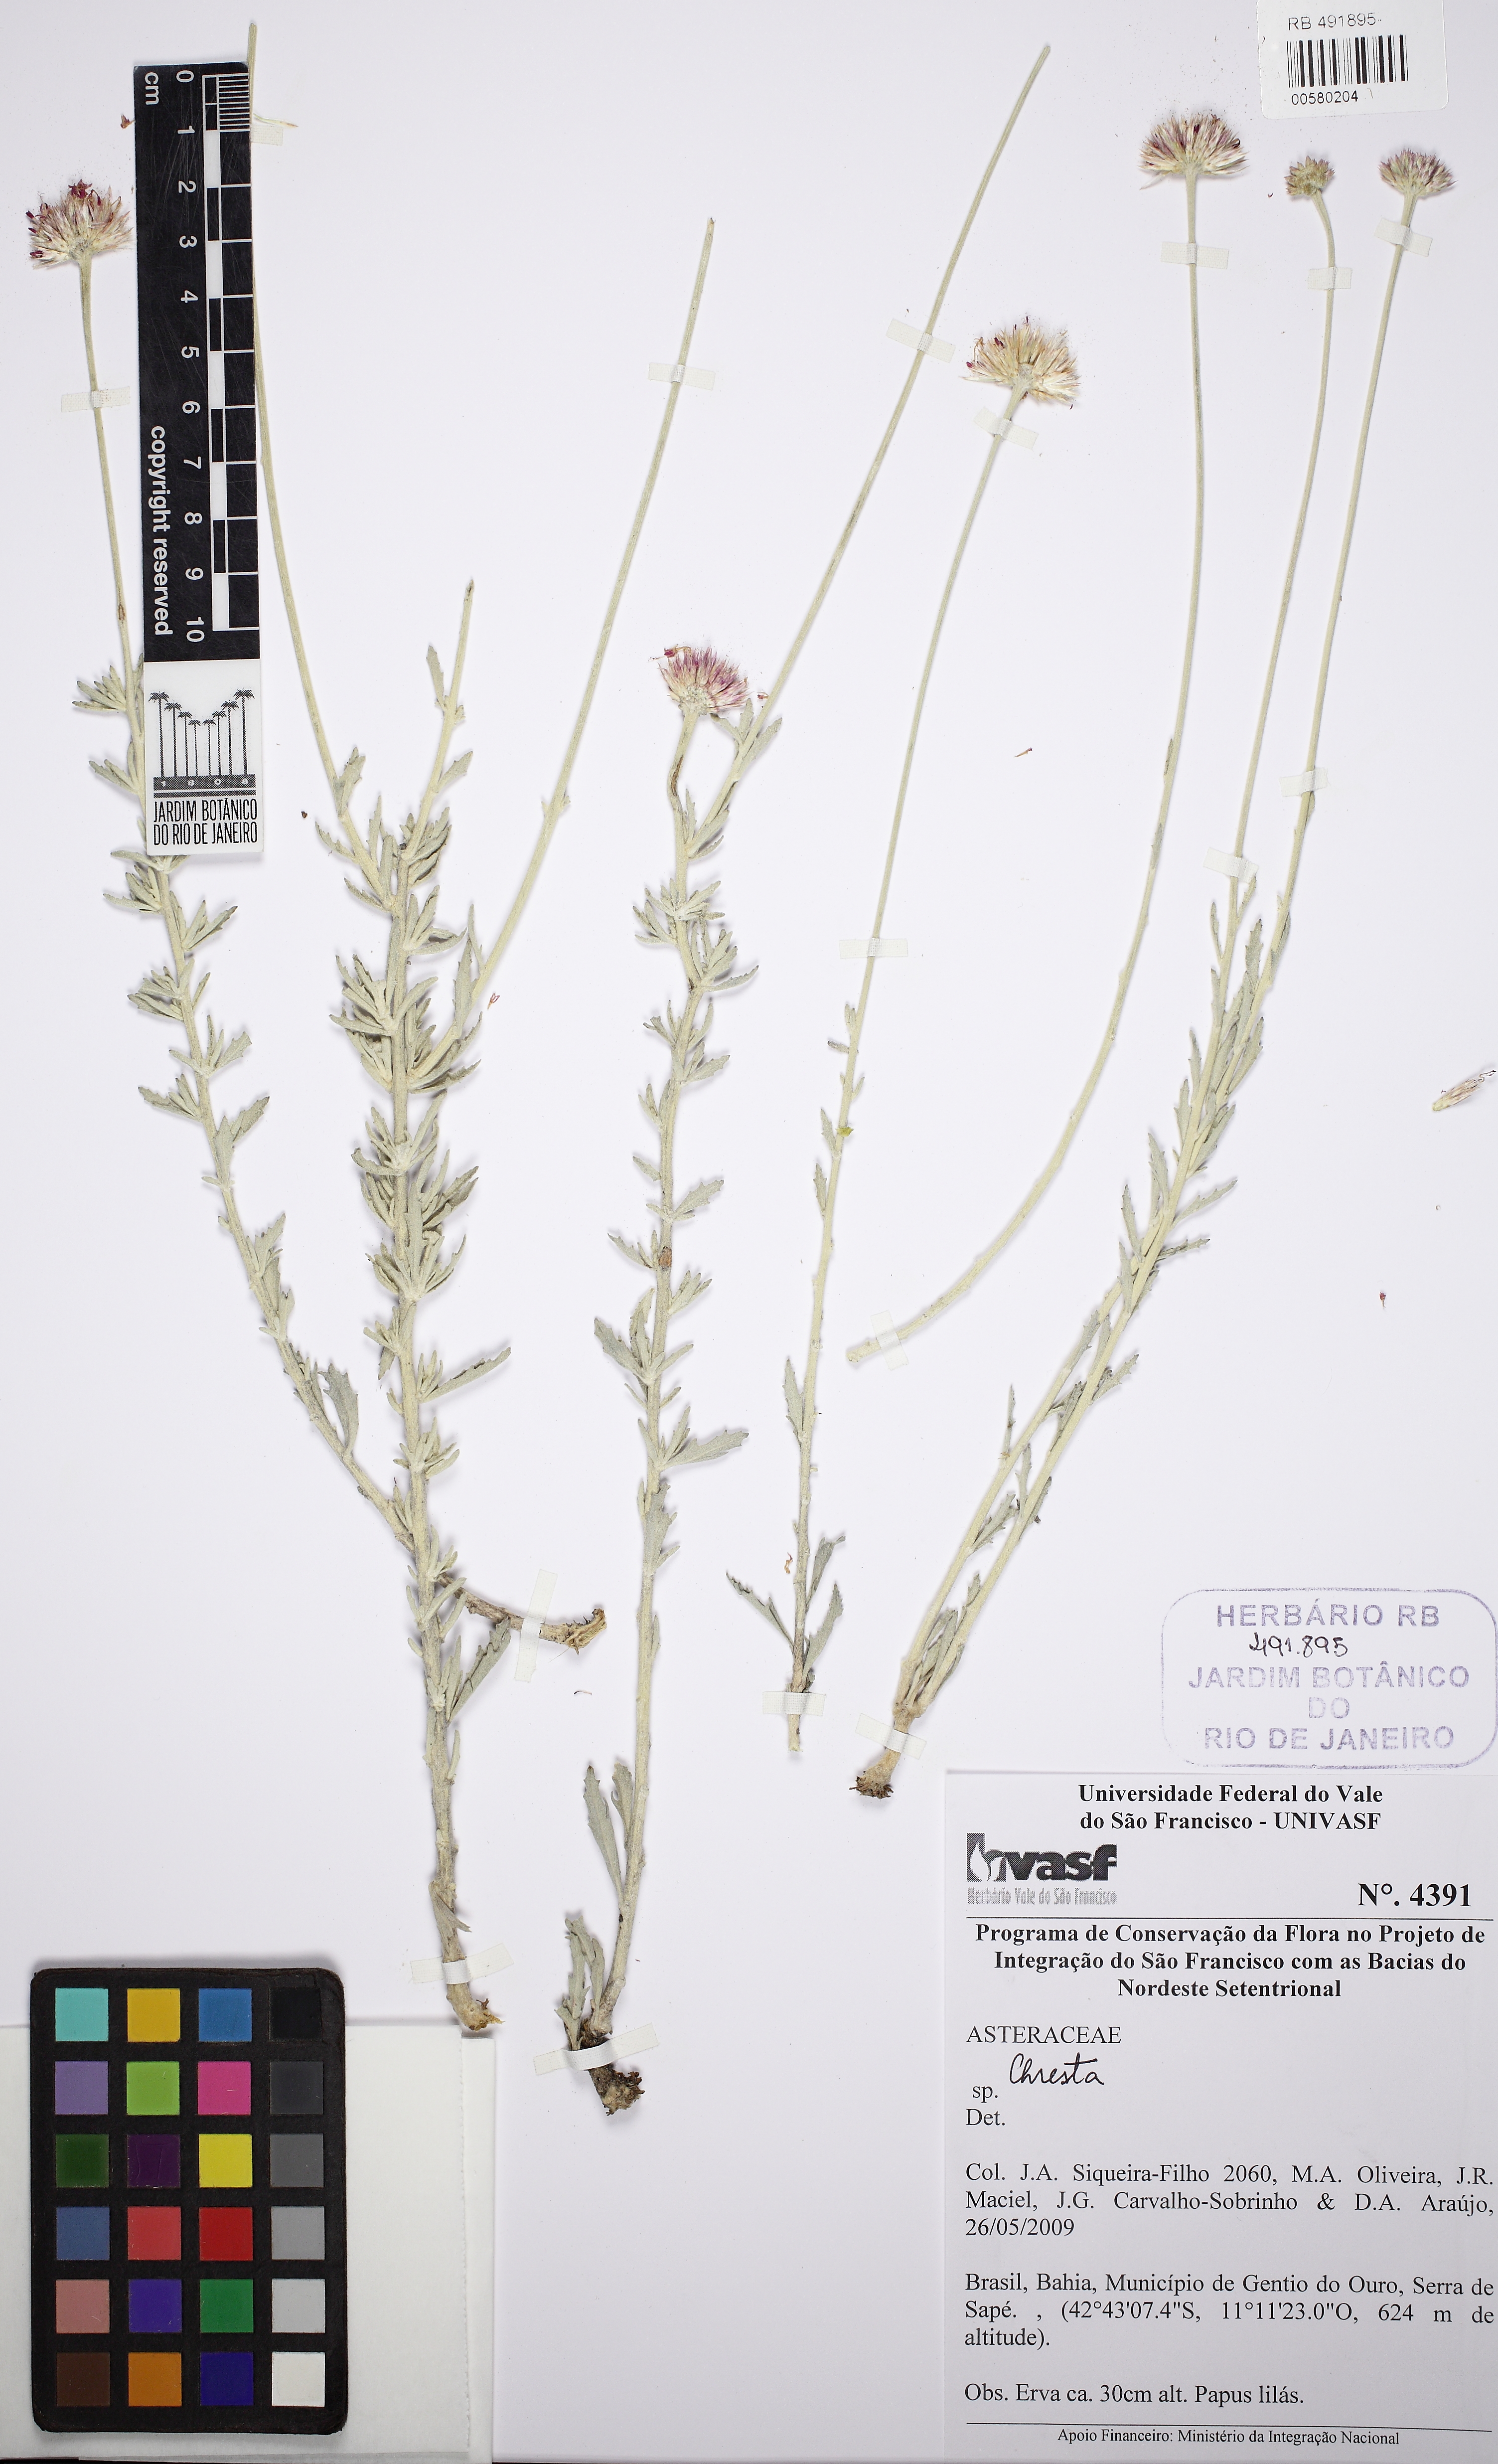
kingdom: Plantae
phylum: Tracheophyta
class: Magnoliopsida
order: Asterales
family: Asteraceae
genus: Chresta
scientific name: Chresta subverticillata
